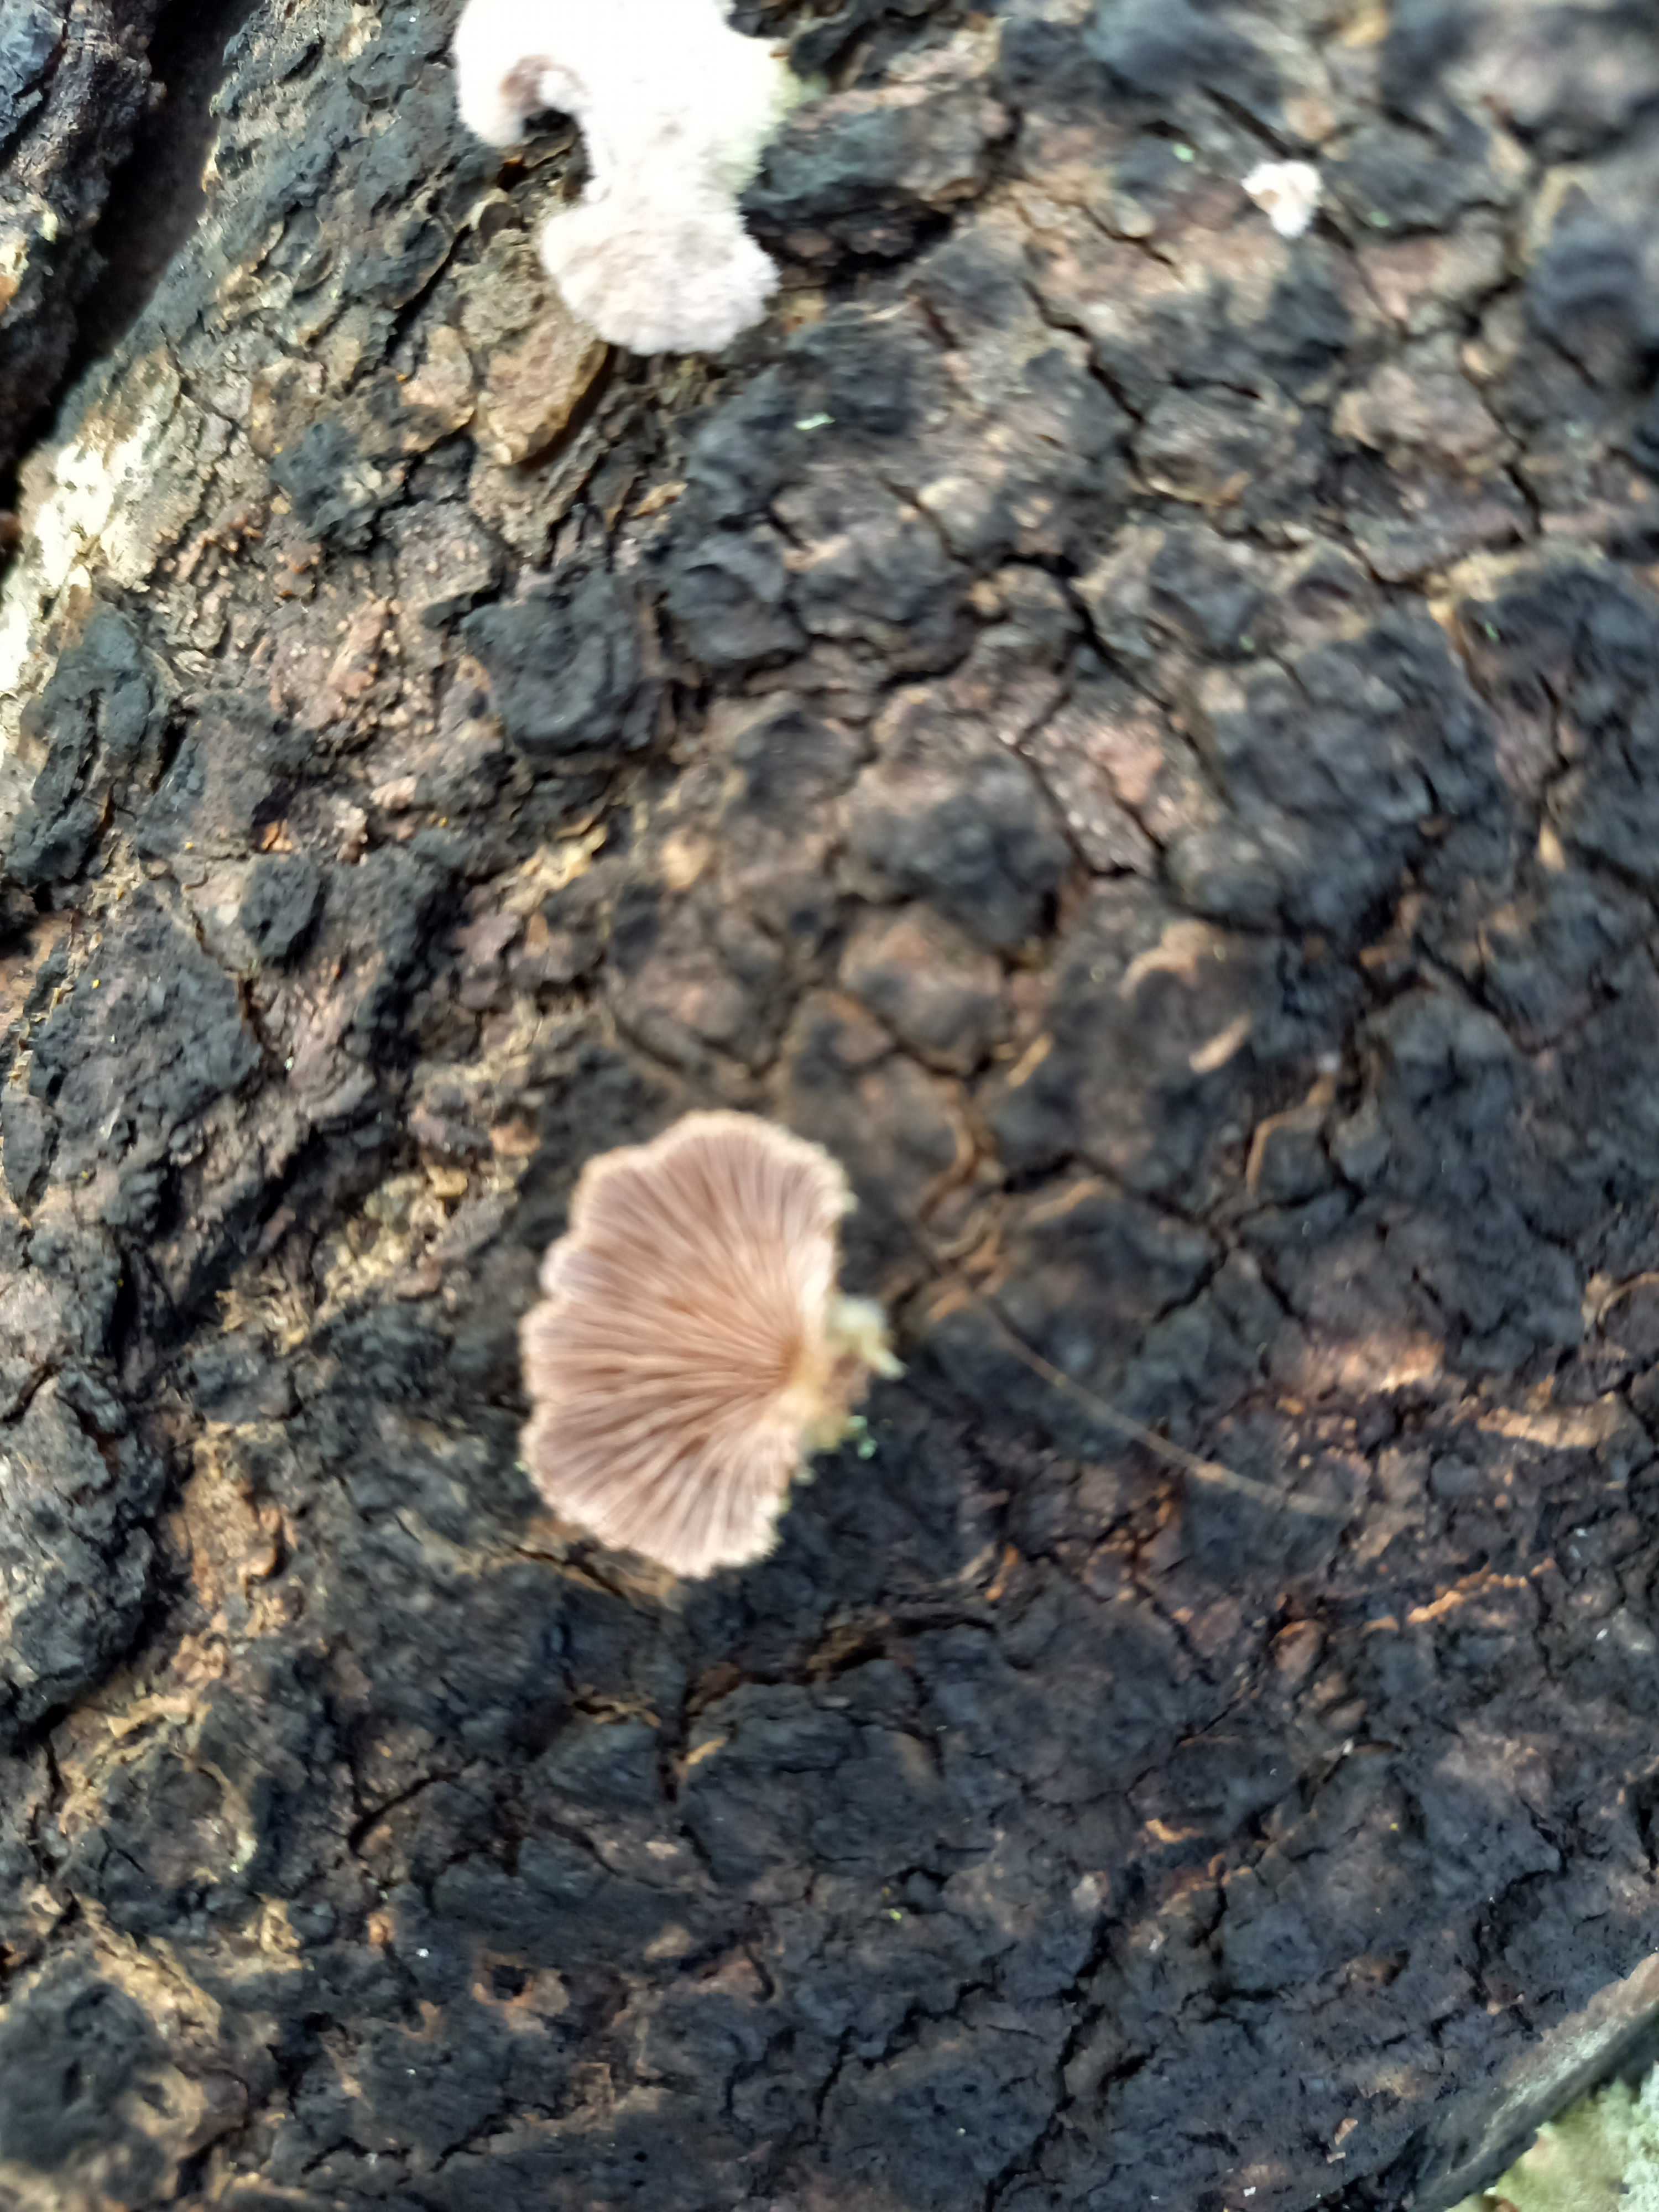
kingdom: Fungi
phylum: Basidiomycota
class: Agaricomycetes
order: Agaricales
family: Schizophyllaceae
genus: Schizophyllum
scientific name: Schizophyllum commune
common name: kløvblad
